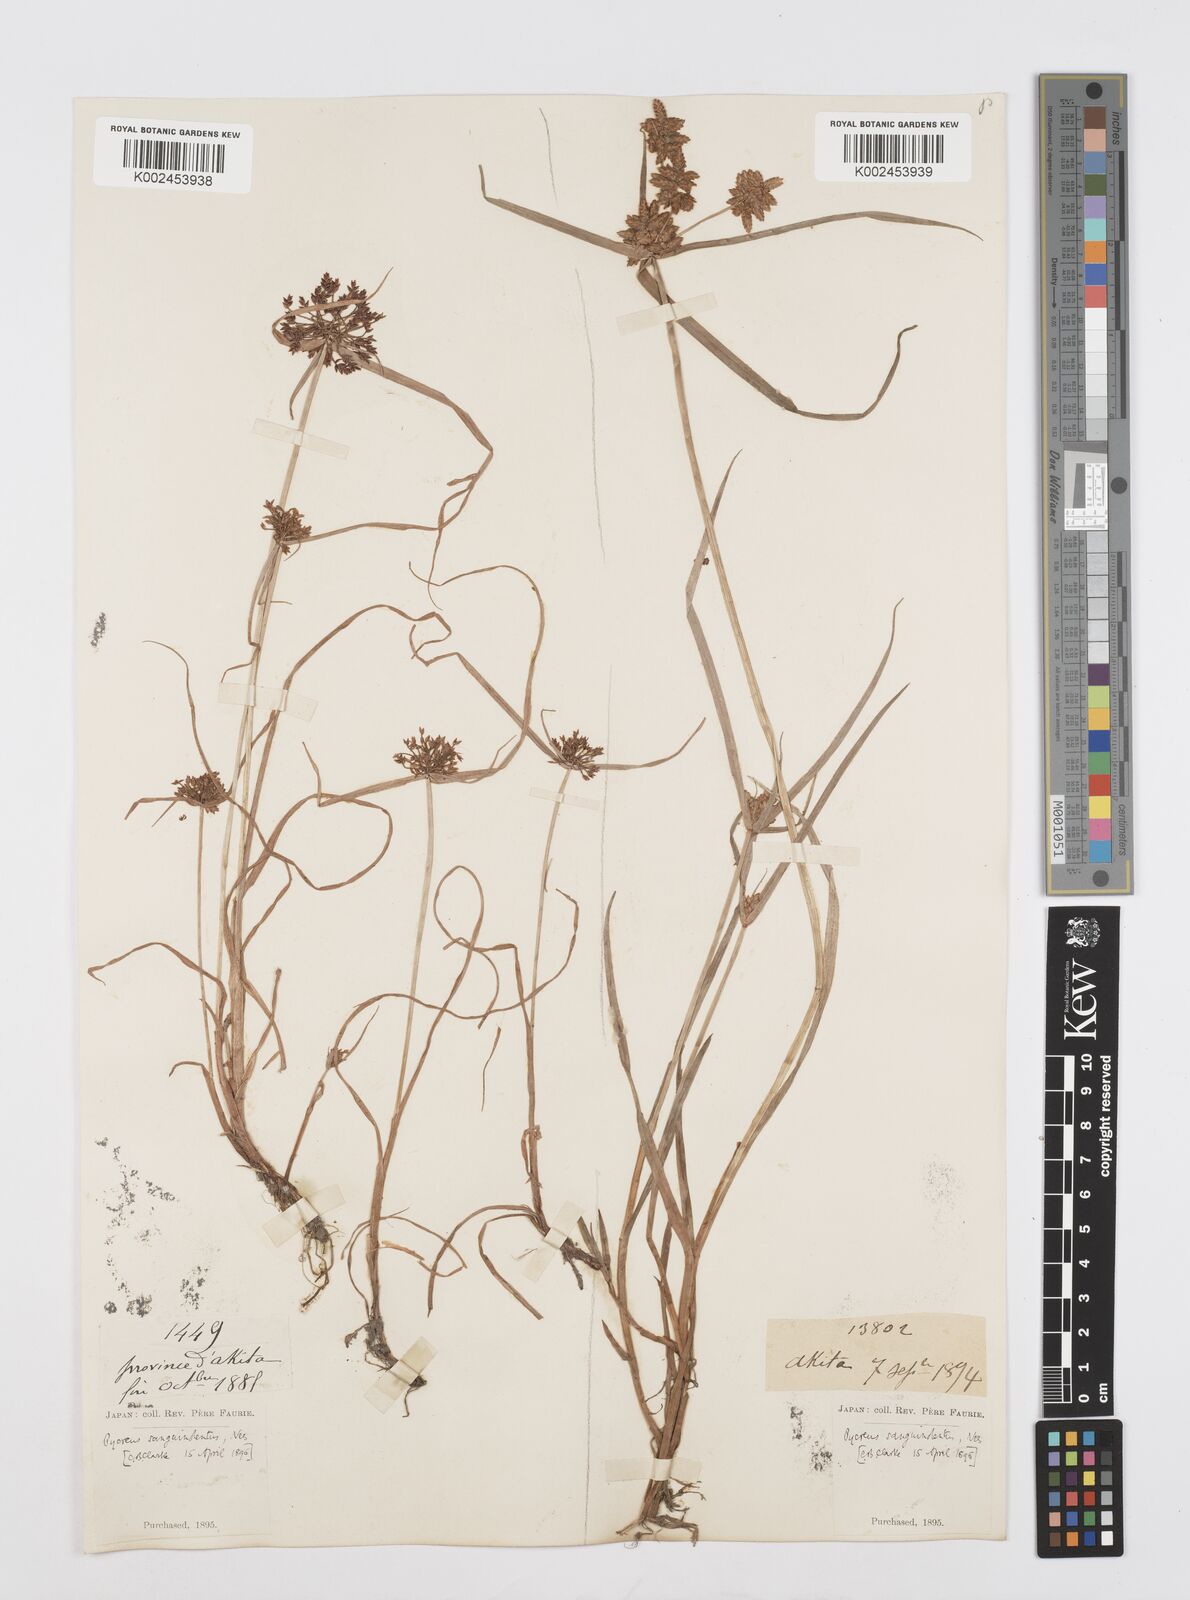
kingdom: Plantae
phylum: Tracheophyta
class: Liliopsida
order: Poales
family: Cyperaceae
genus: Cyperus
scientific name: Cyperus sanguinolentus
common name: Purpleglume flatsedge
